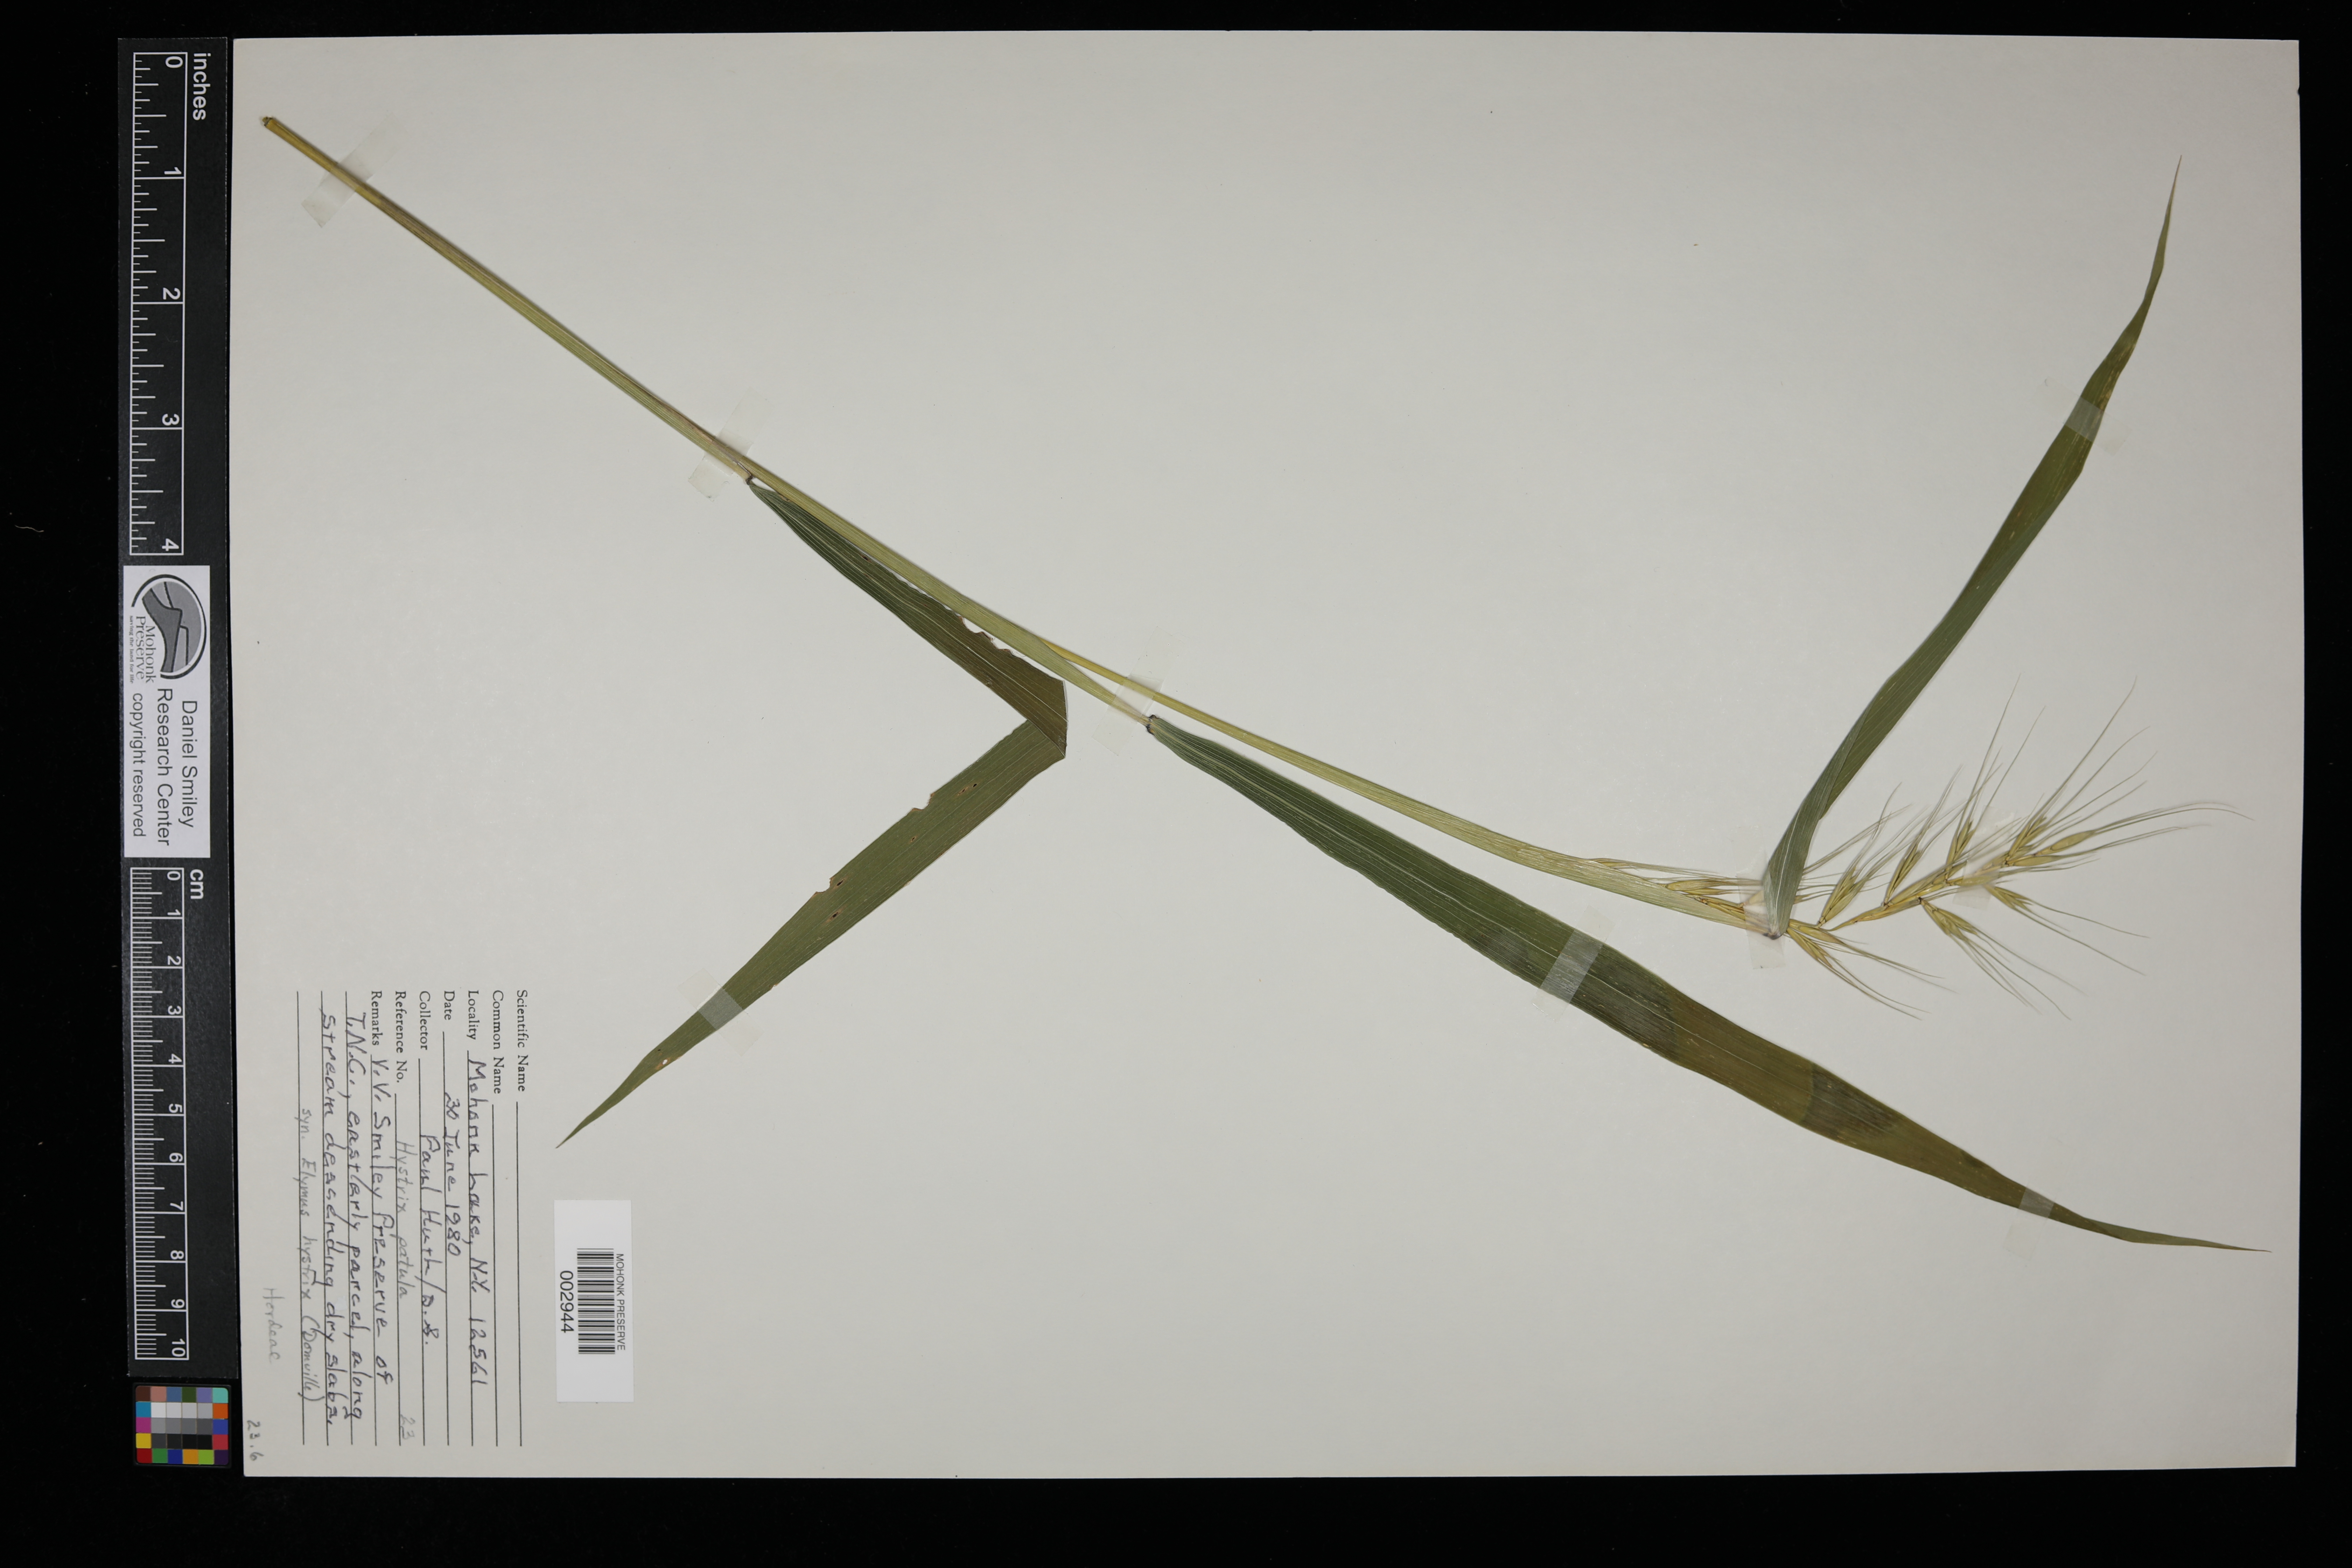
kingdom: Plantae
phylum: Tracheophyta
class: Liliopsida
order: Poales
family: Poaceae
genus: Elymus
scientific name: Elymus hystrix
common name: Bottlebrush grass
